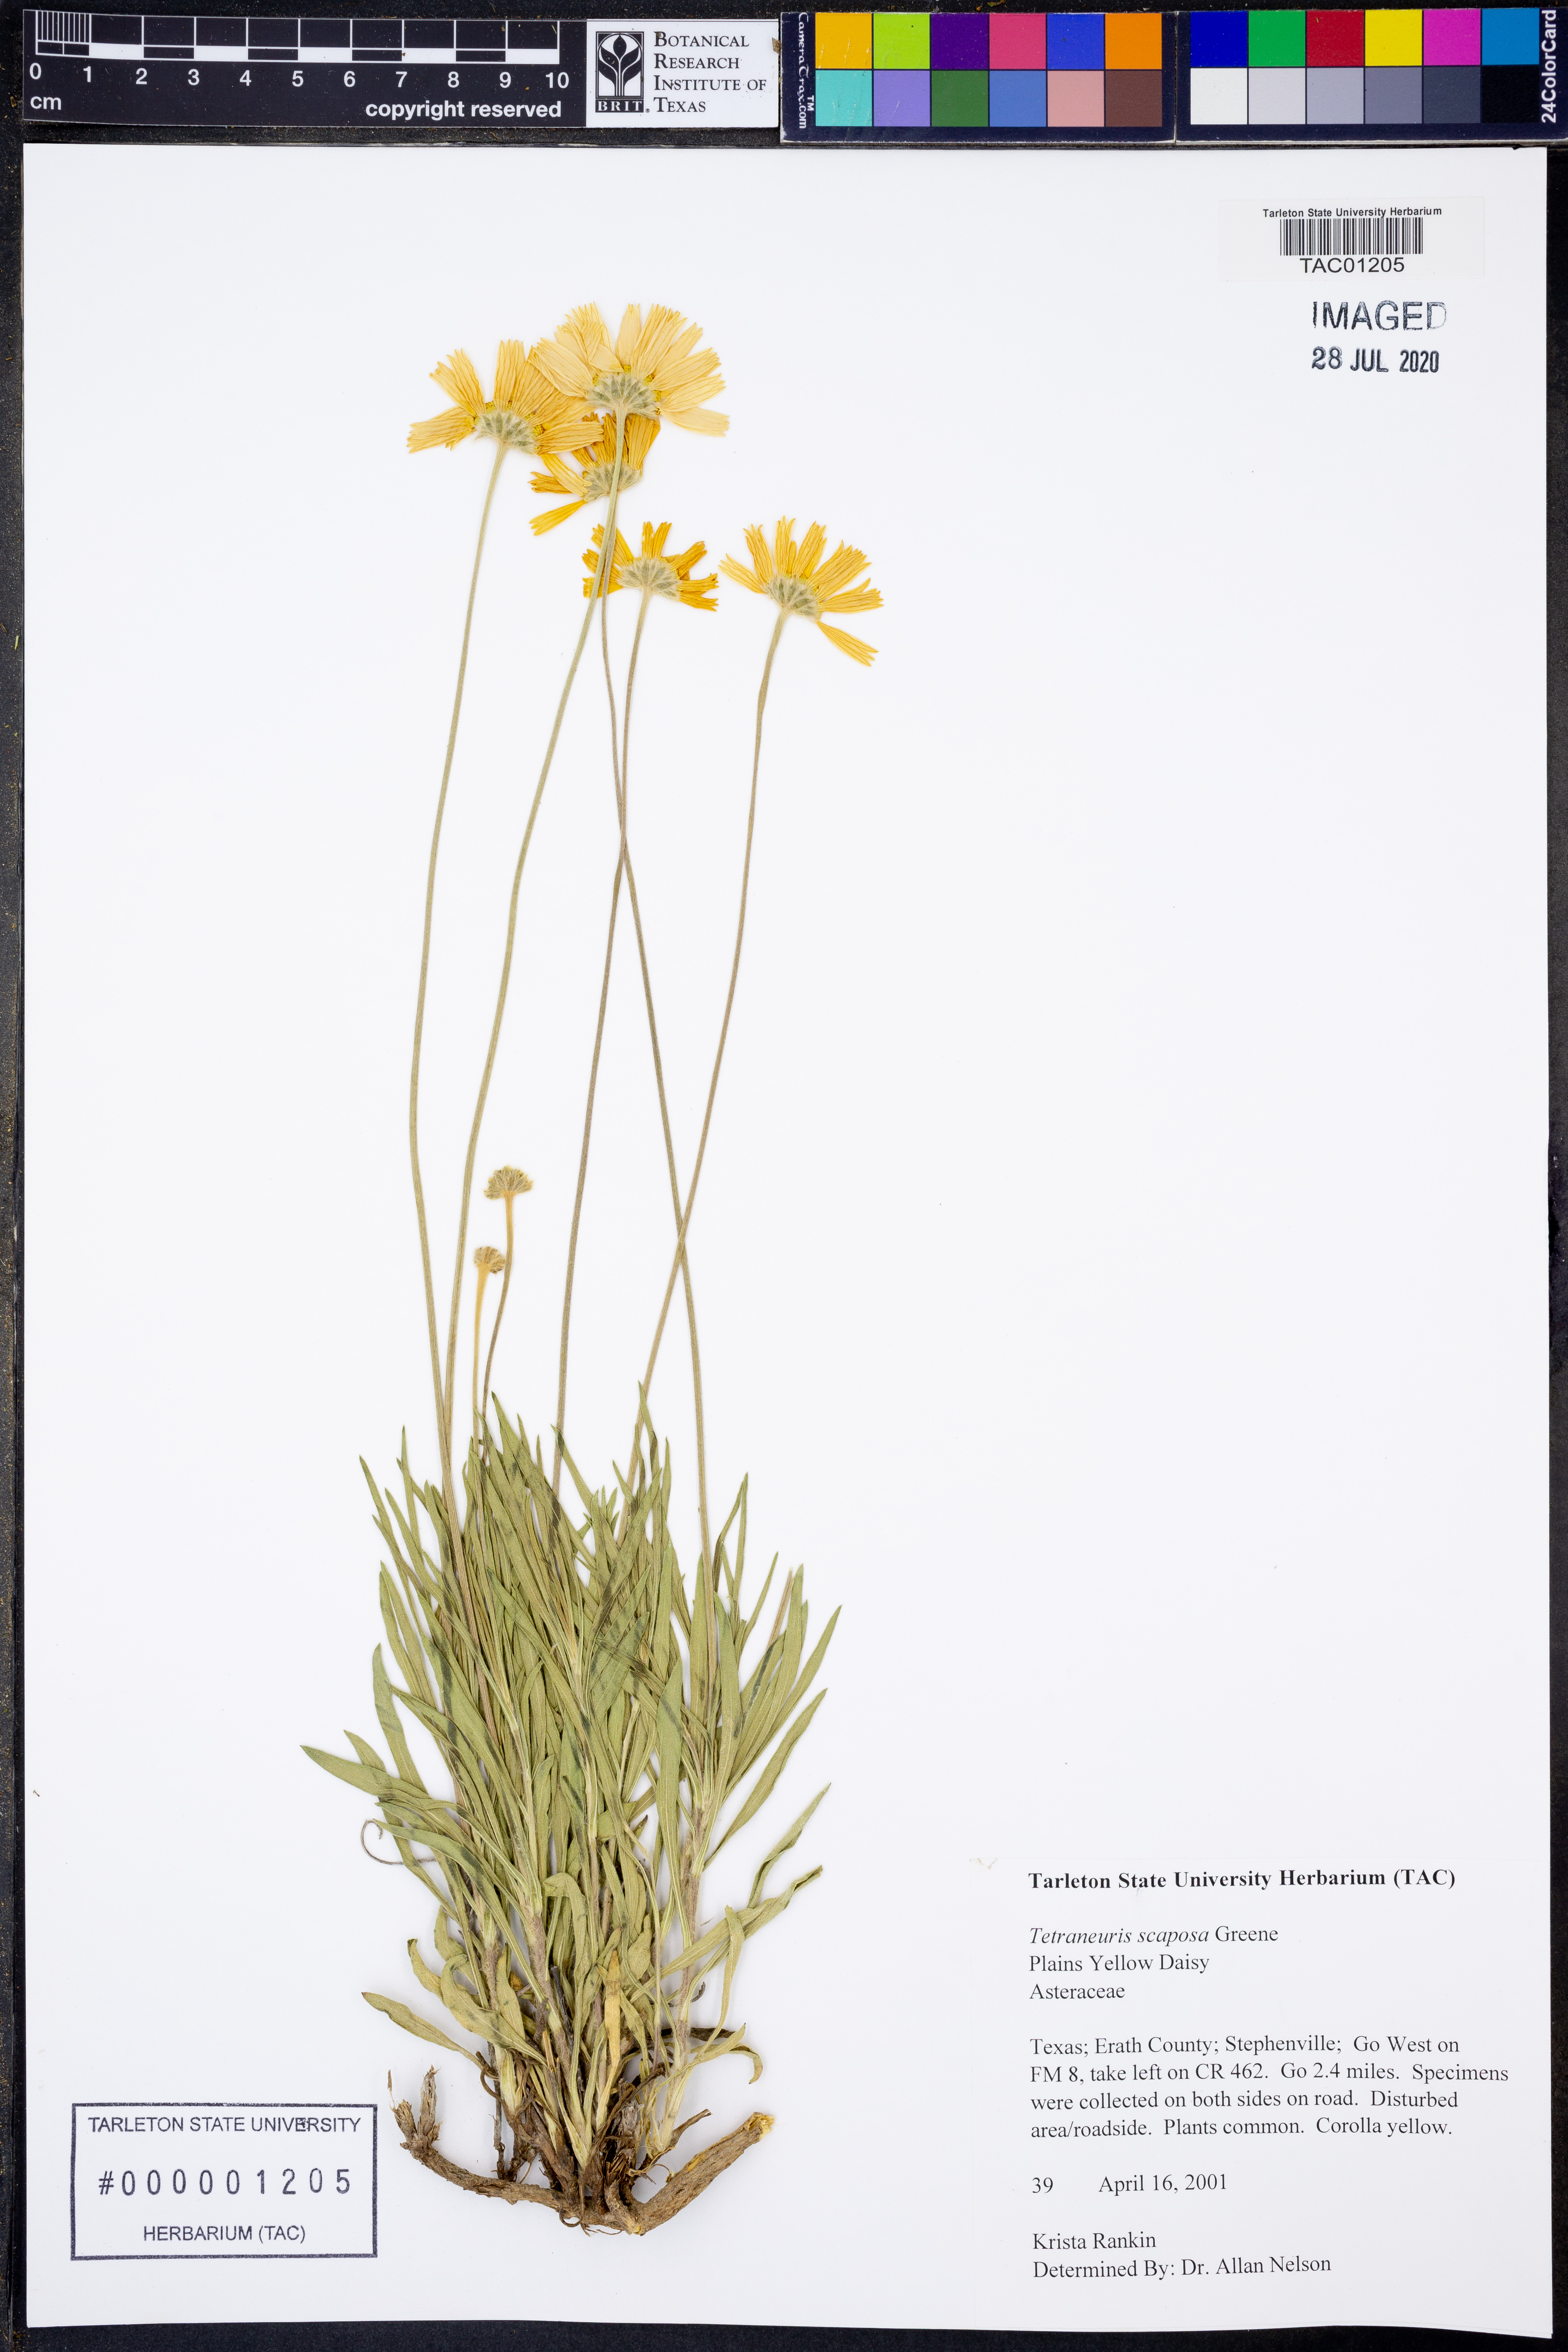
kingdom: Plantae
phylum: Tracheophyta
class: Magnoliopsida
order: Asterales
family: Asteraceae
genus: Tetraneuris
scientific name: Tetraneuris scaposa
